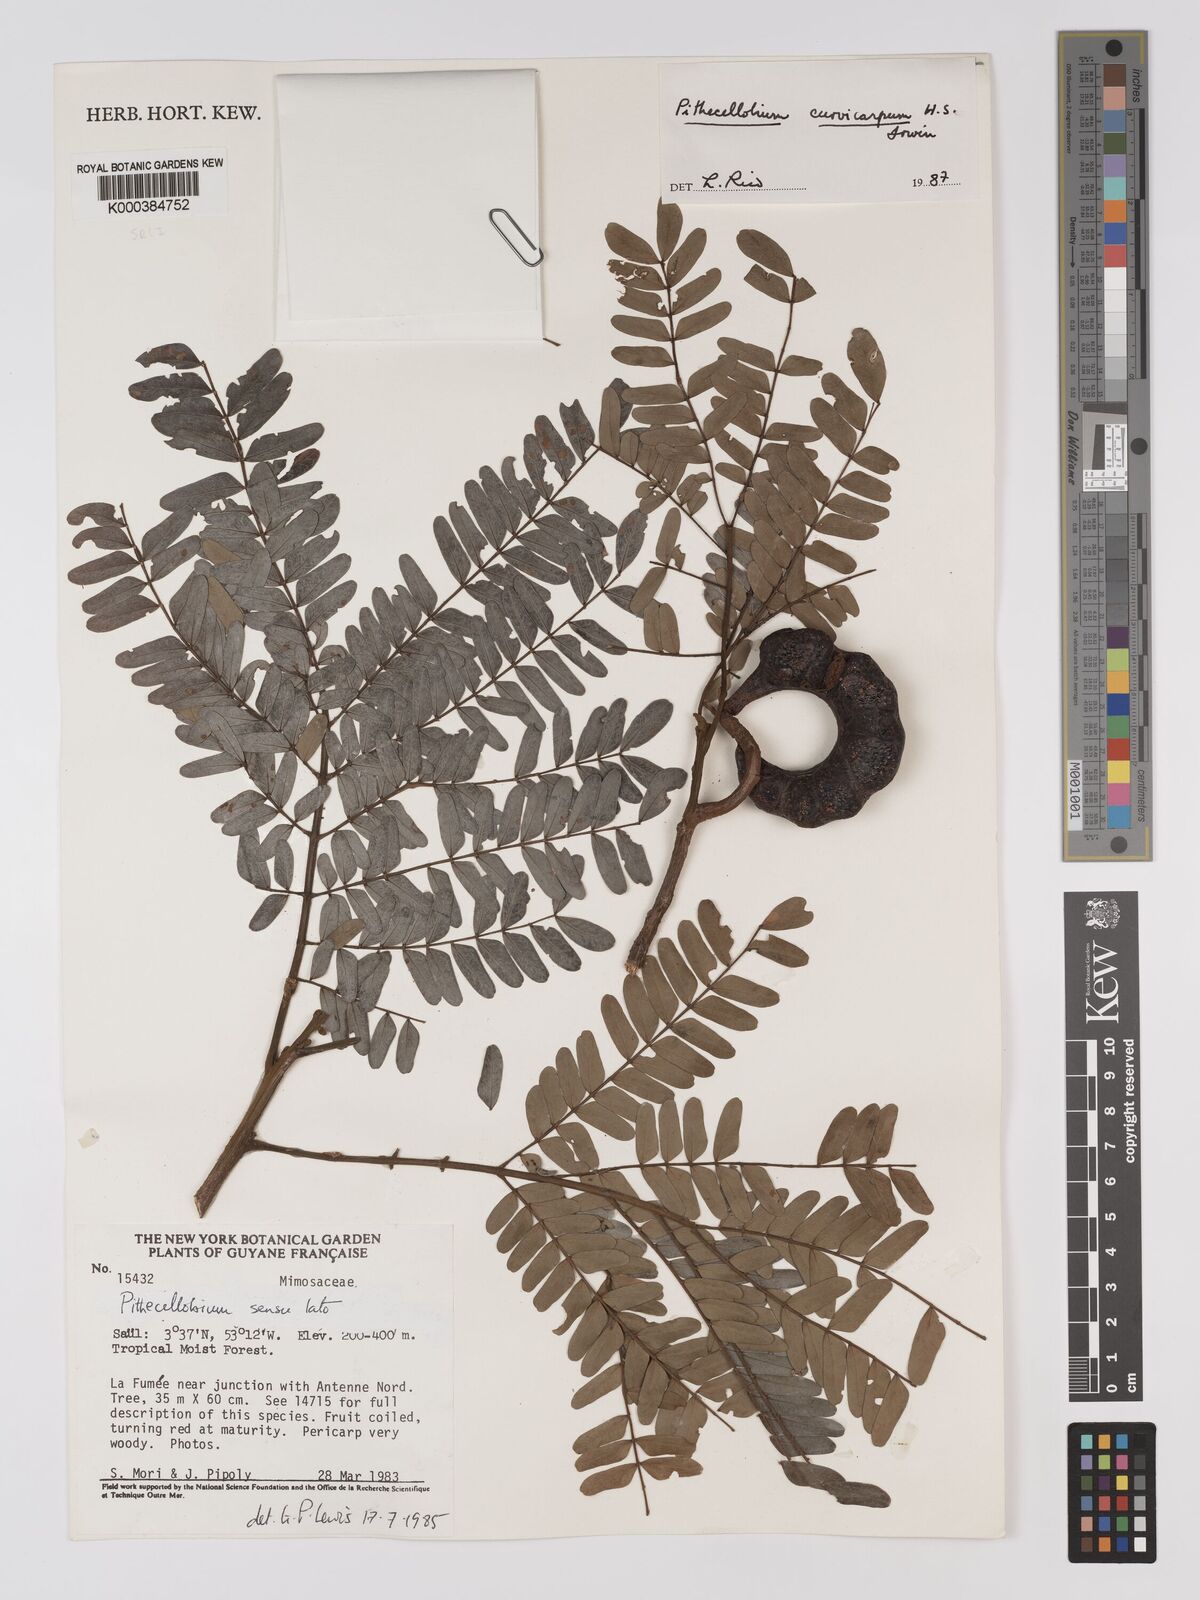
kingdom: Plantae
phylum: Tracheophyta
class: Magnoliopsida
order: Fabales
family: Fabaceae
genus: Jupunba
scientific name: Jupunba curvicarpa
